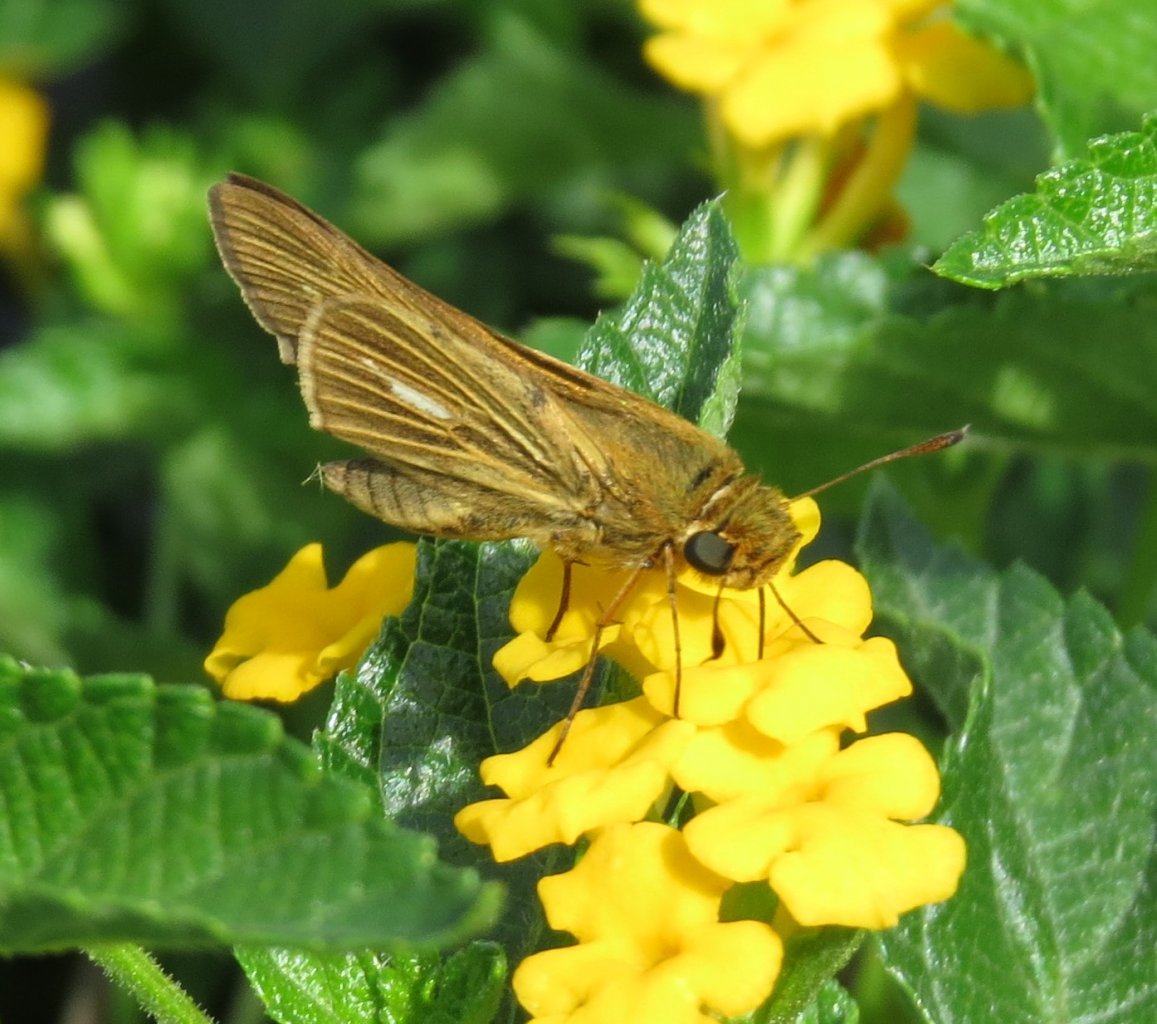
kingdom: Animalia
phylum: Arthropoda
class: Insecta
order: Lepidoptera
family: Hesperiidae
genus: Panoquina
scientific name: Panoquina panoquin
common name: Salt Marsh Skipper
